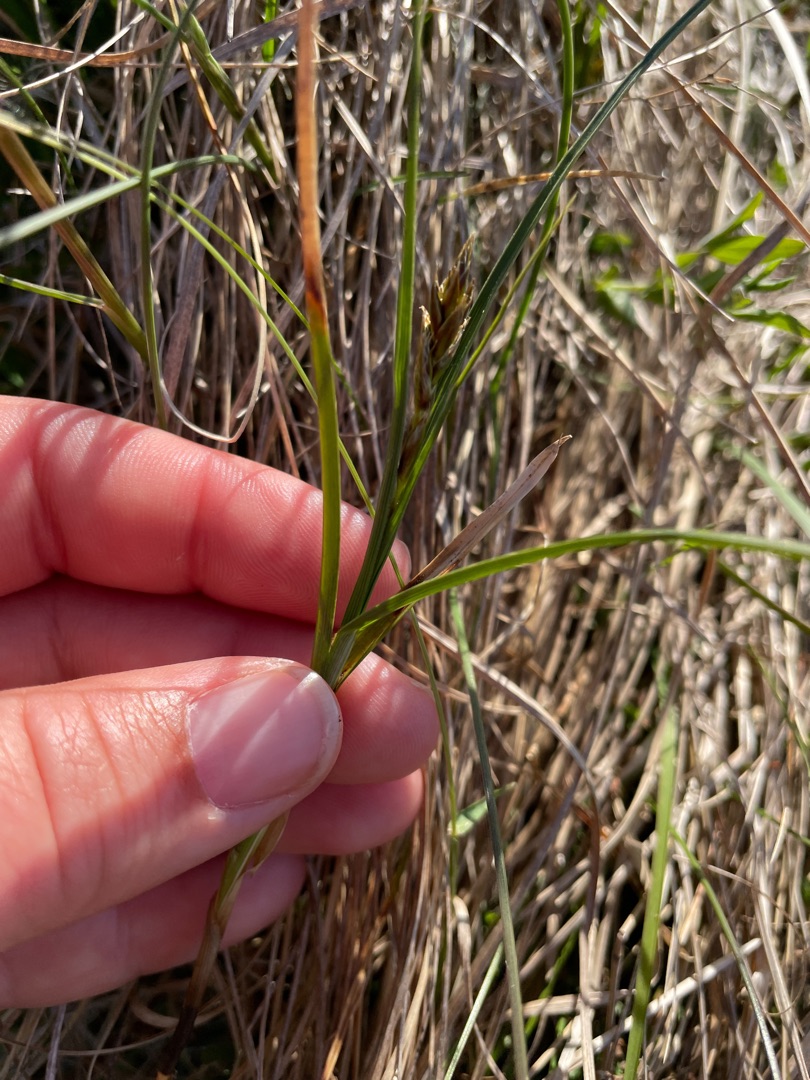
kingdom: Plantae
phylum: Tracheophyta
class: Liliopsida
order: Poales
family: Cyperaceae
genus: Carex
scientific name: Carex disticha
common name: Toradet star
